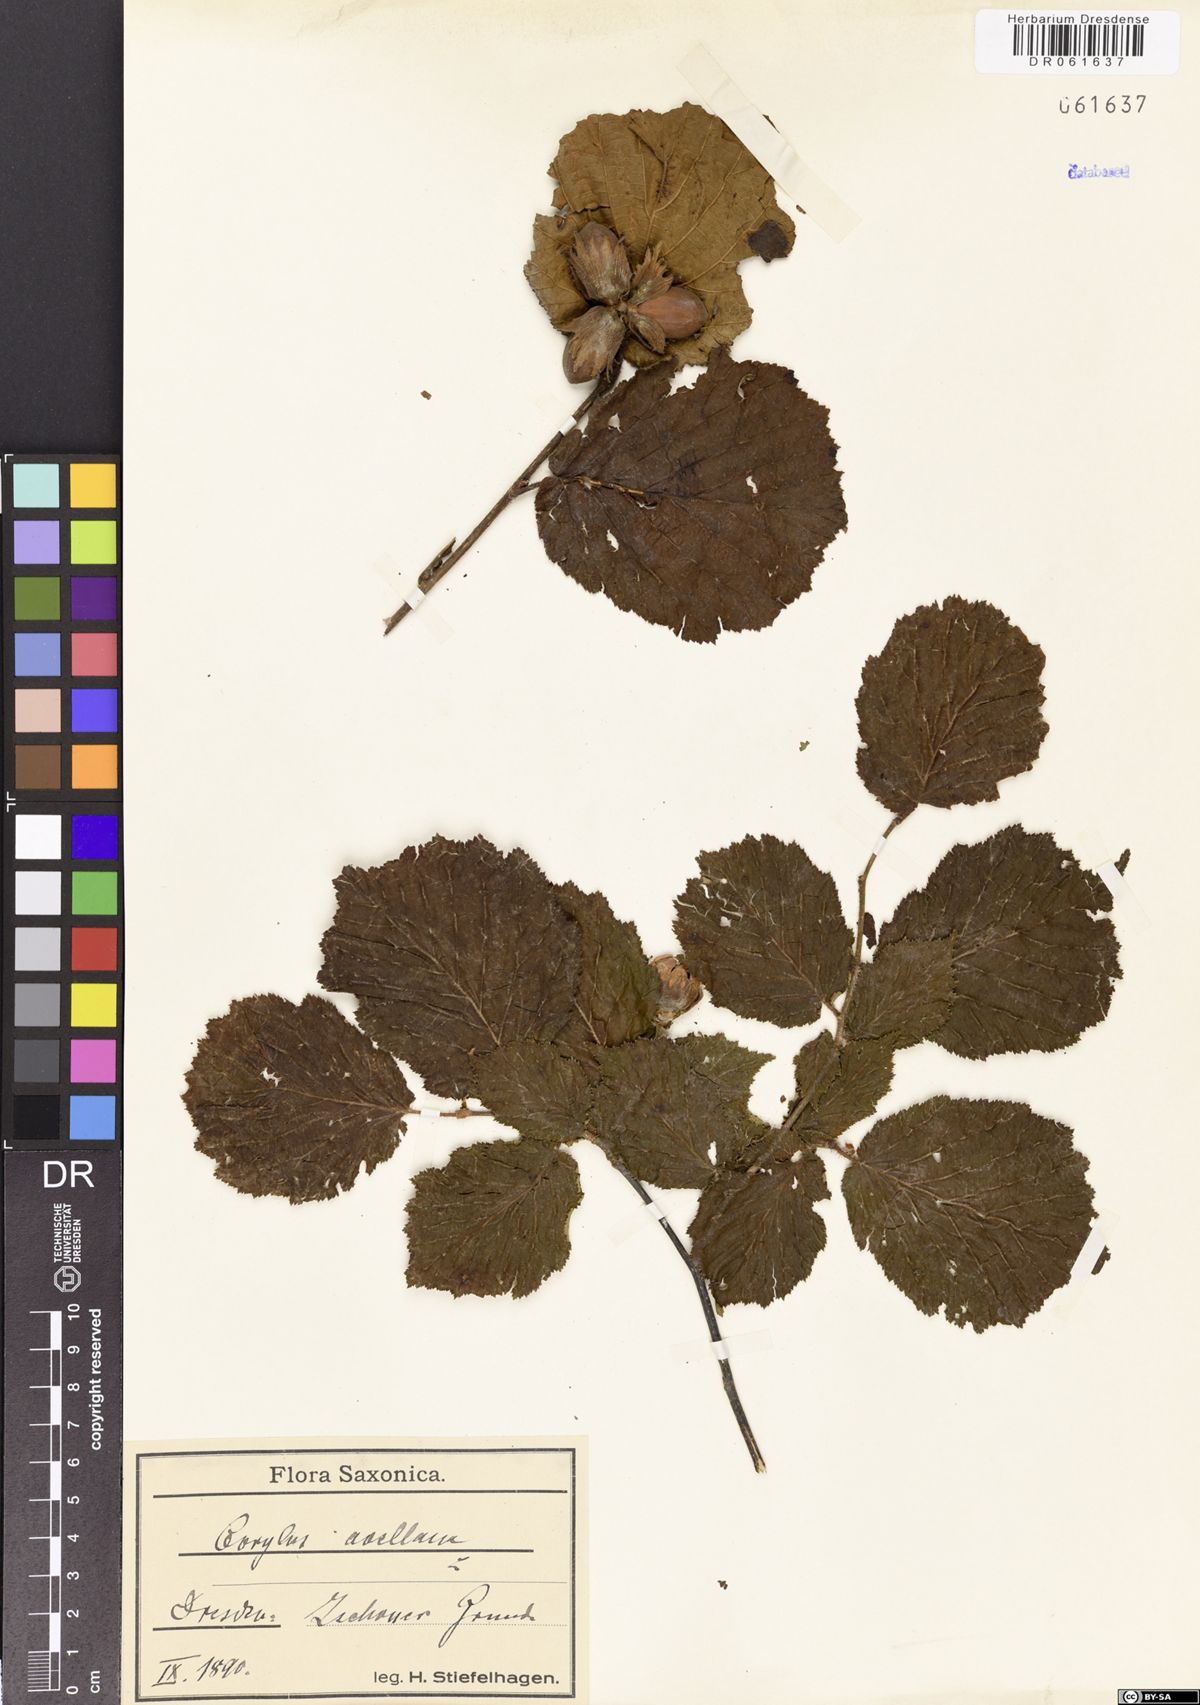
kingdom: Plantae
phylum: Tracheophyta
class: Magnoliopsida
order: Fagales
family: Betulaceae
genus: Corylus
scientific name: Corylus avellana
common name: European hazel
